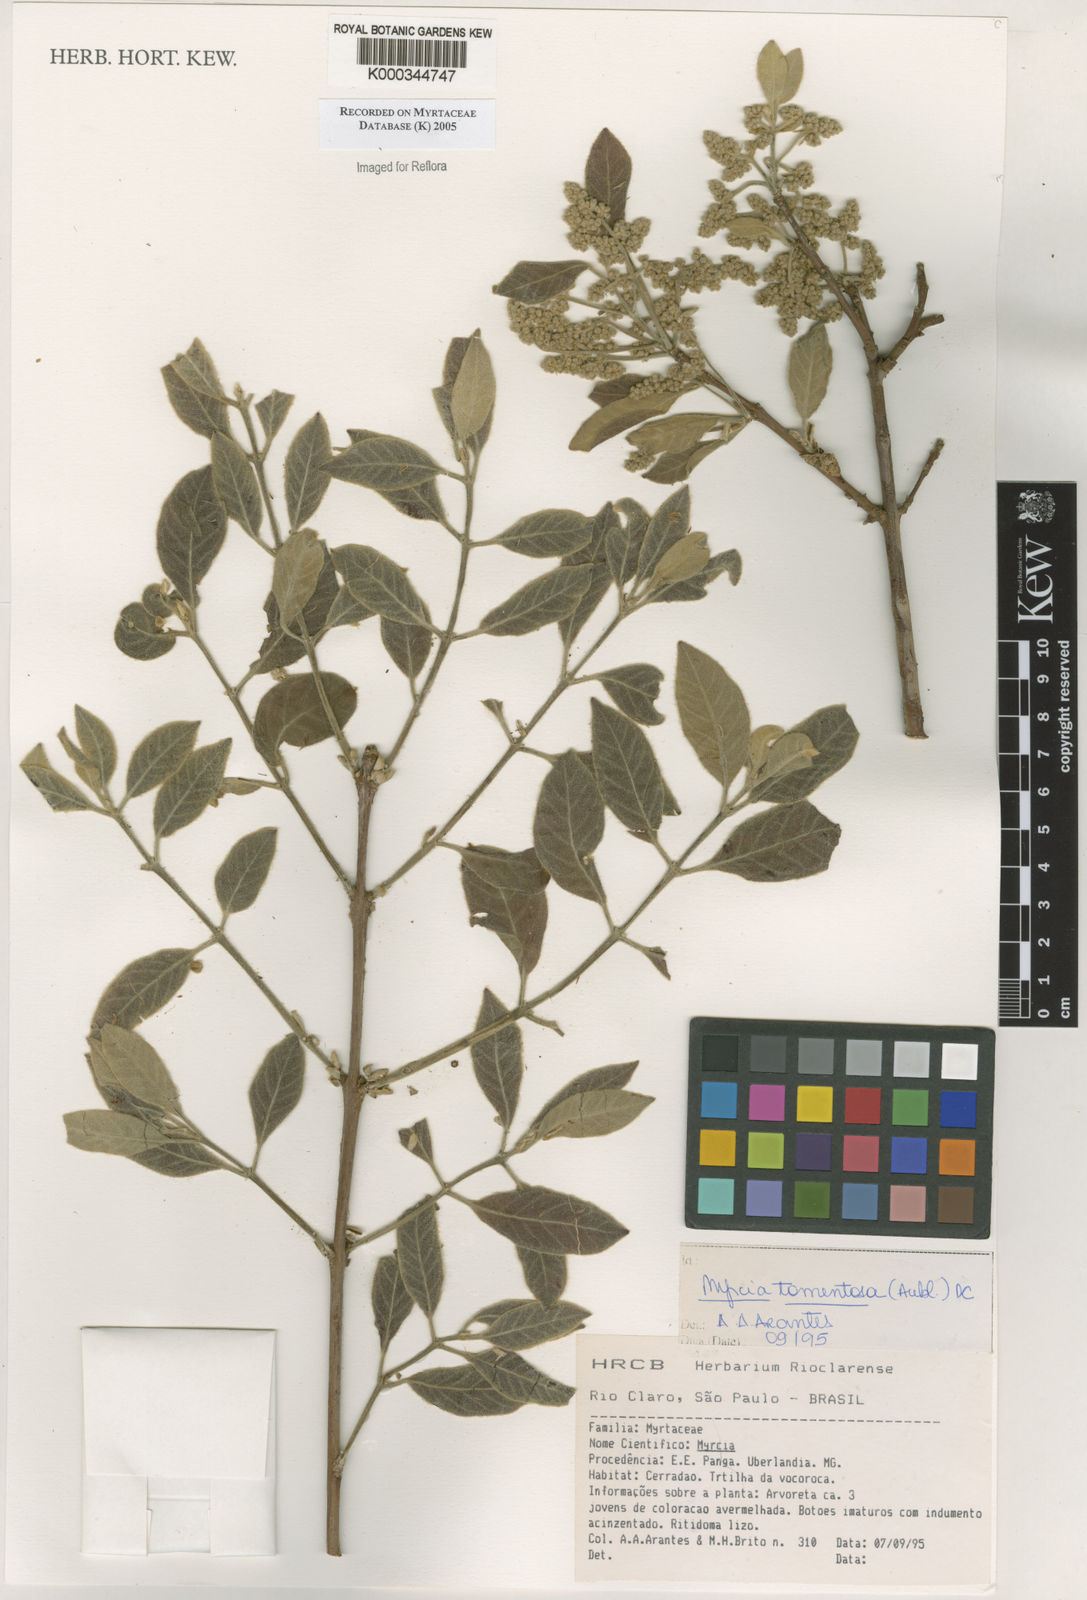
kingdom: Plantae
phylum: Tracheophyta
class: Magnoliopsida
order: Myrtales
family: Myrtaceae
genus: Myrcia
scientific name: Myrcia tomentosa
